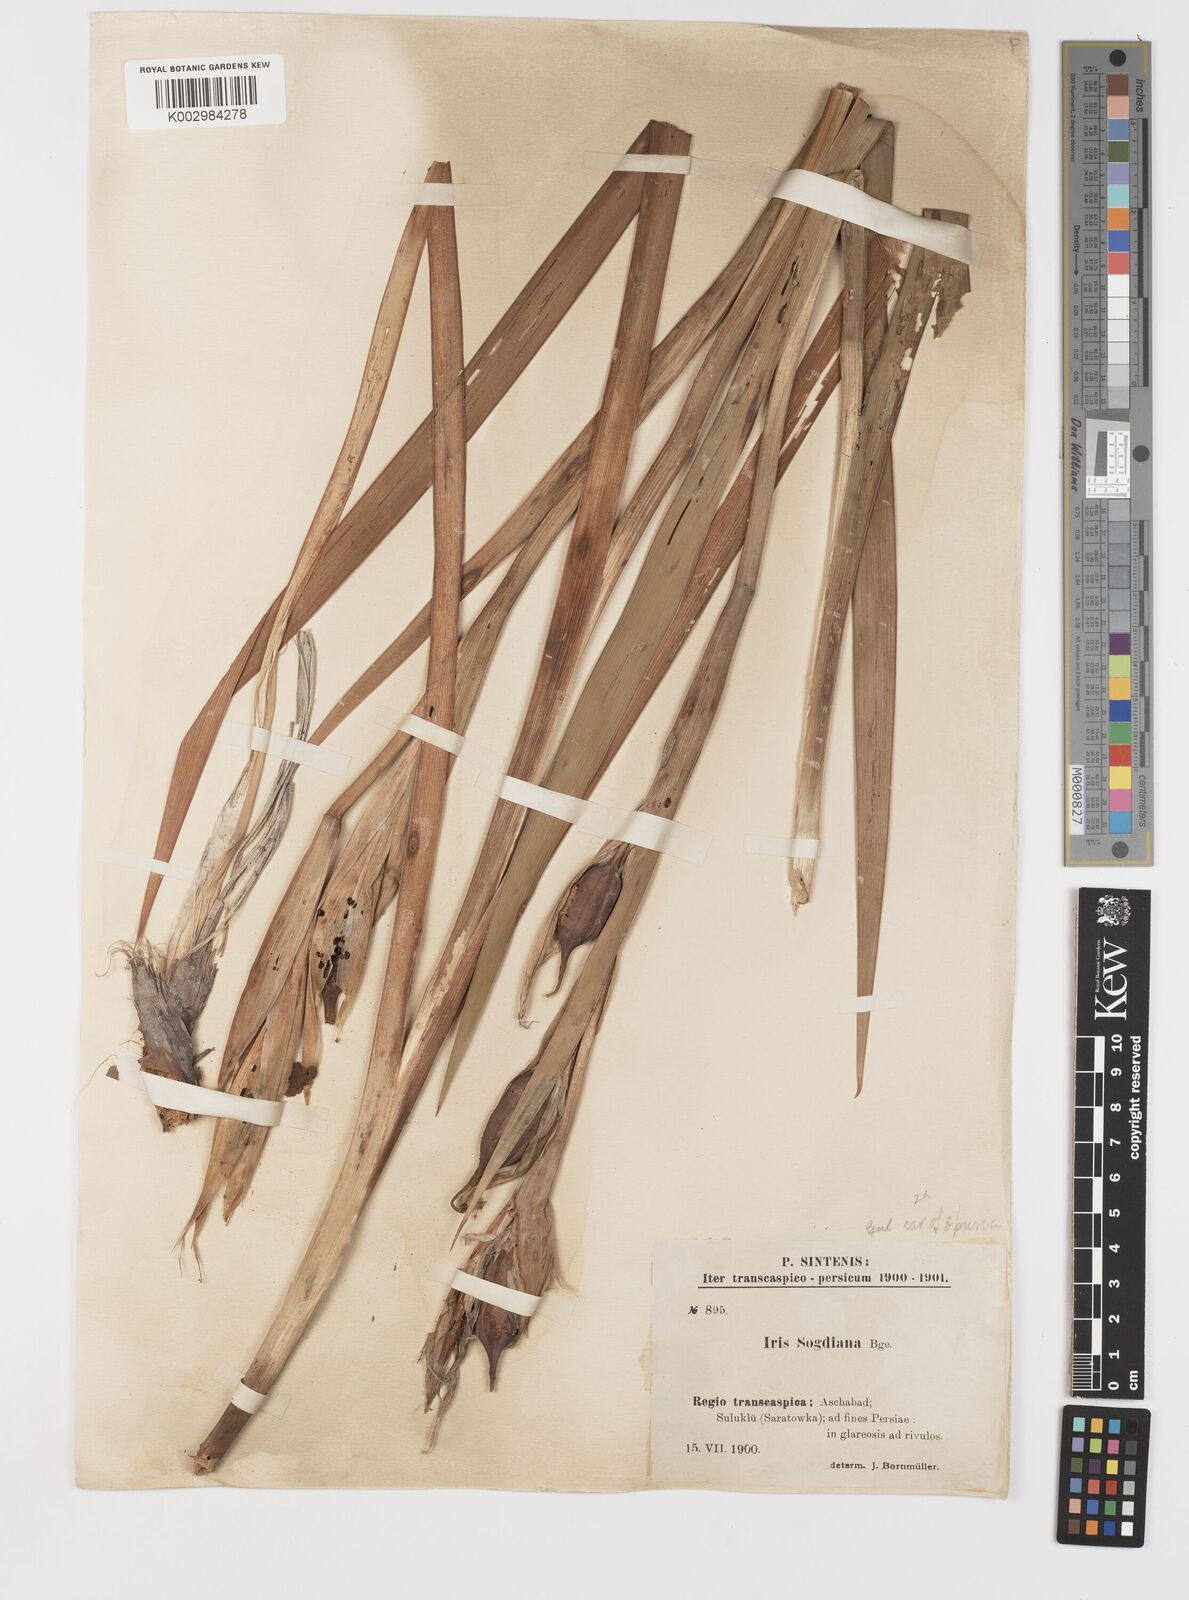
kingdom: Plantae
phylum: Tracheophyta
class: Liliopsida
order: Asparagales
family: Iridaceae
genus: Iris
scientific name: Iris spuria
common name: Blue iris
